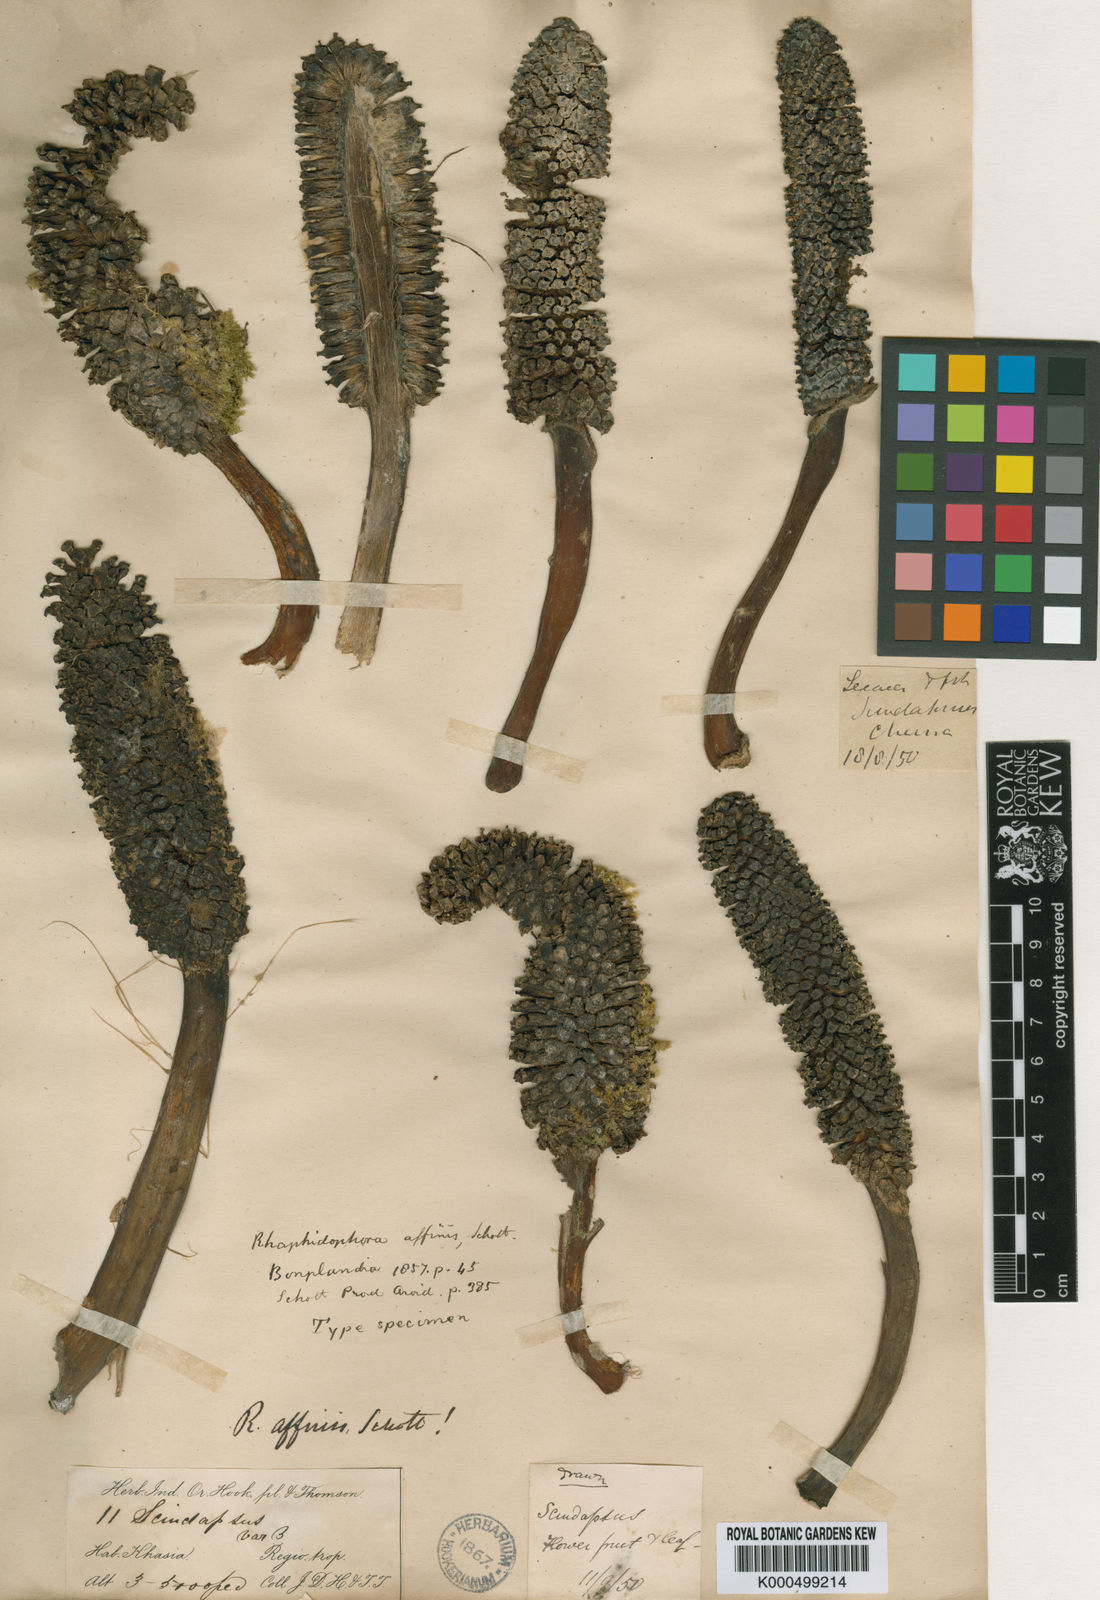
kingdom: Plantae
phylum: Tracheophyta
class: Liliopsida
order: Alismatales
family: Araceae
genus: Rhaphidophora
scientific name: Rhaphidophora decursiva
